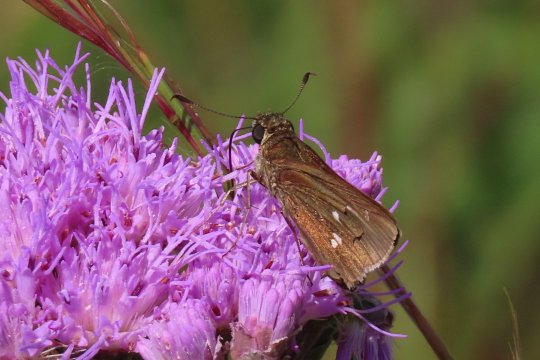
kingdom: Animalia
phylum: Arthropoda
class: Insecta
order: Lepidoptera
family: Hesperiidae
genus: Oligoria
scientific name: Oligoria maculata
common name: Twin-spot Skipper
